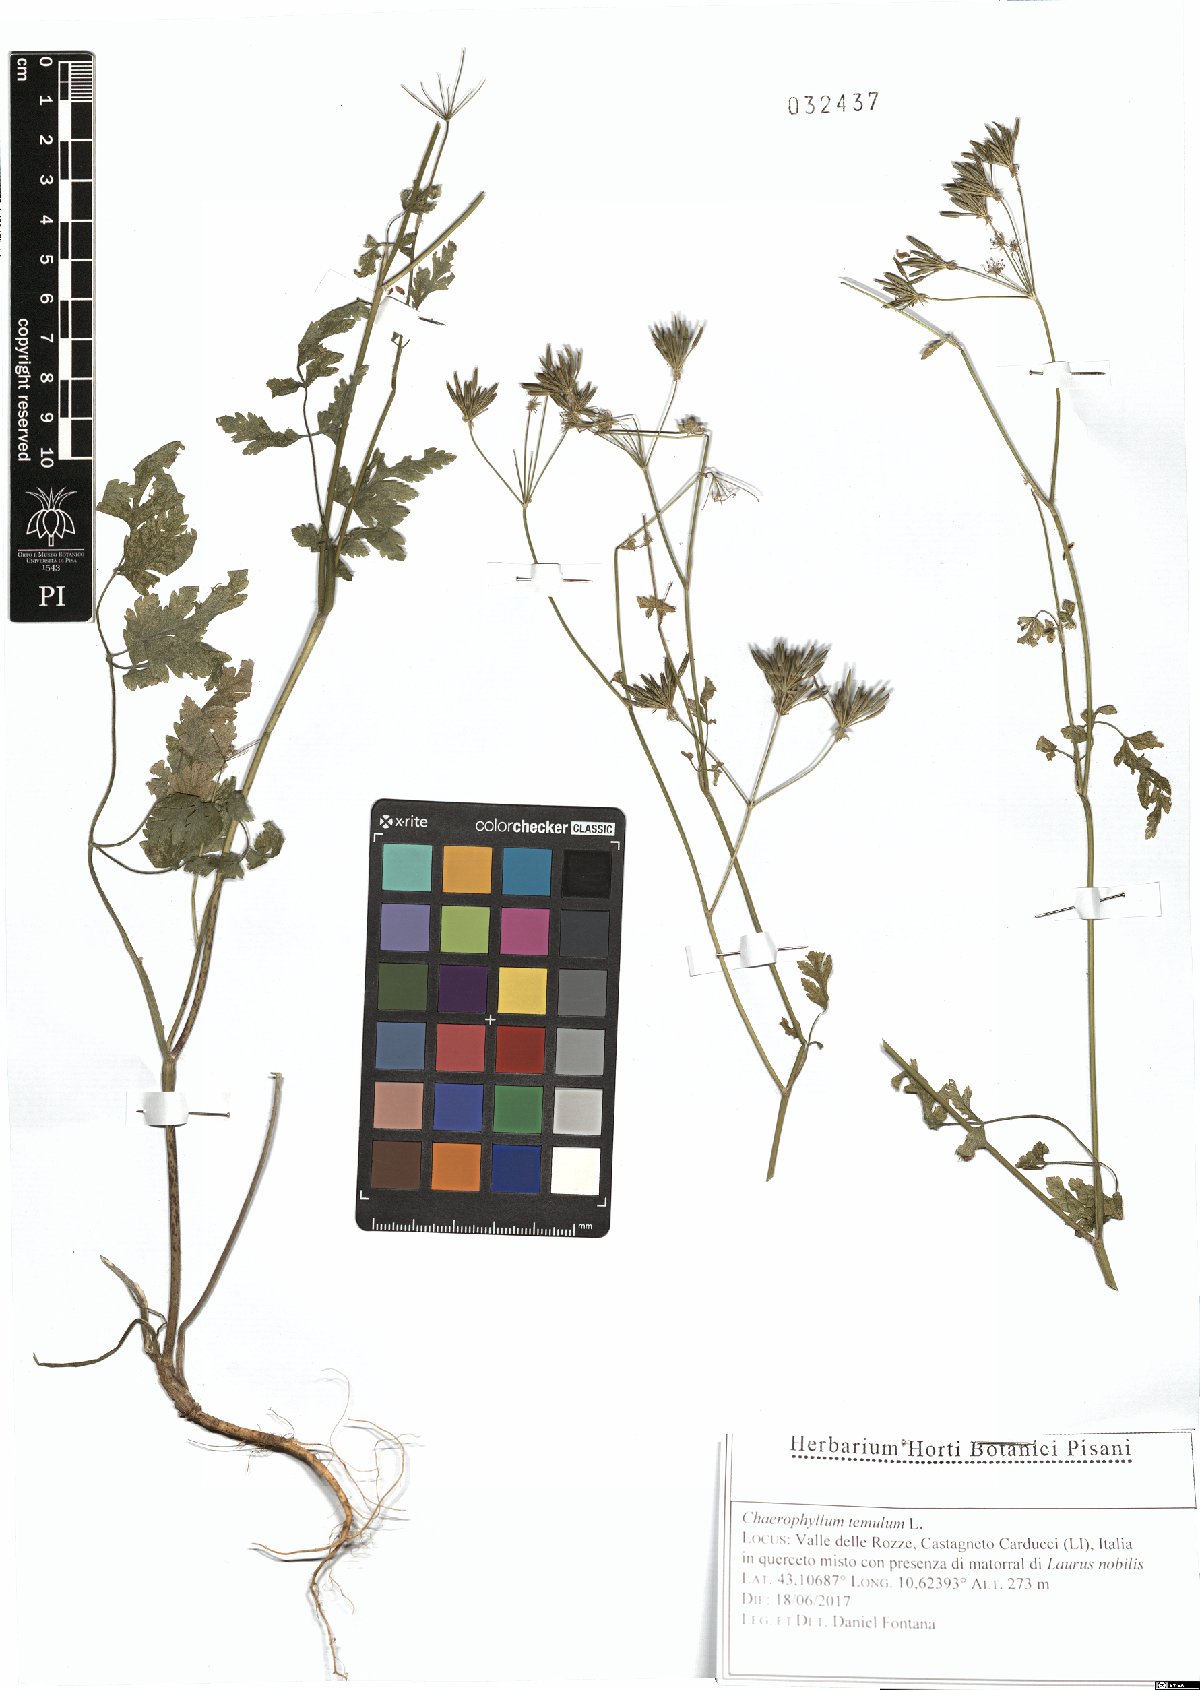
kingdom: Plantae
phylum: Tracheophyta
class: Magnoliopsida
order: Apiales
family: Apiaceae
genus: Chaerophyllum
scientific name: Chaerophyllum temulum
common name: Rough chervil
